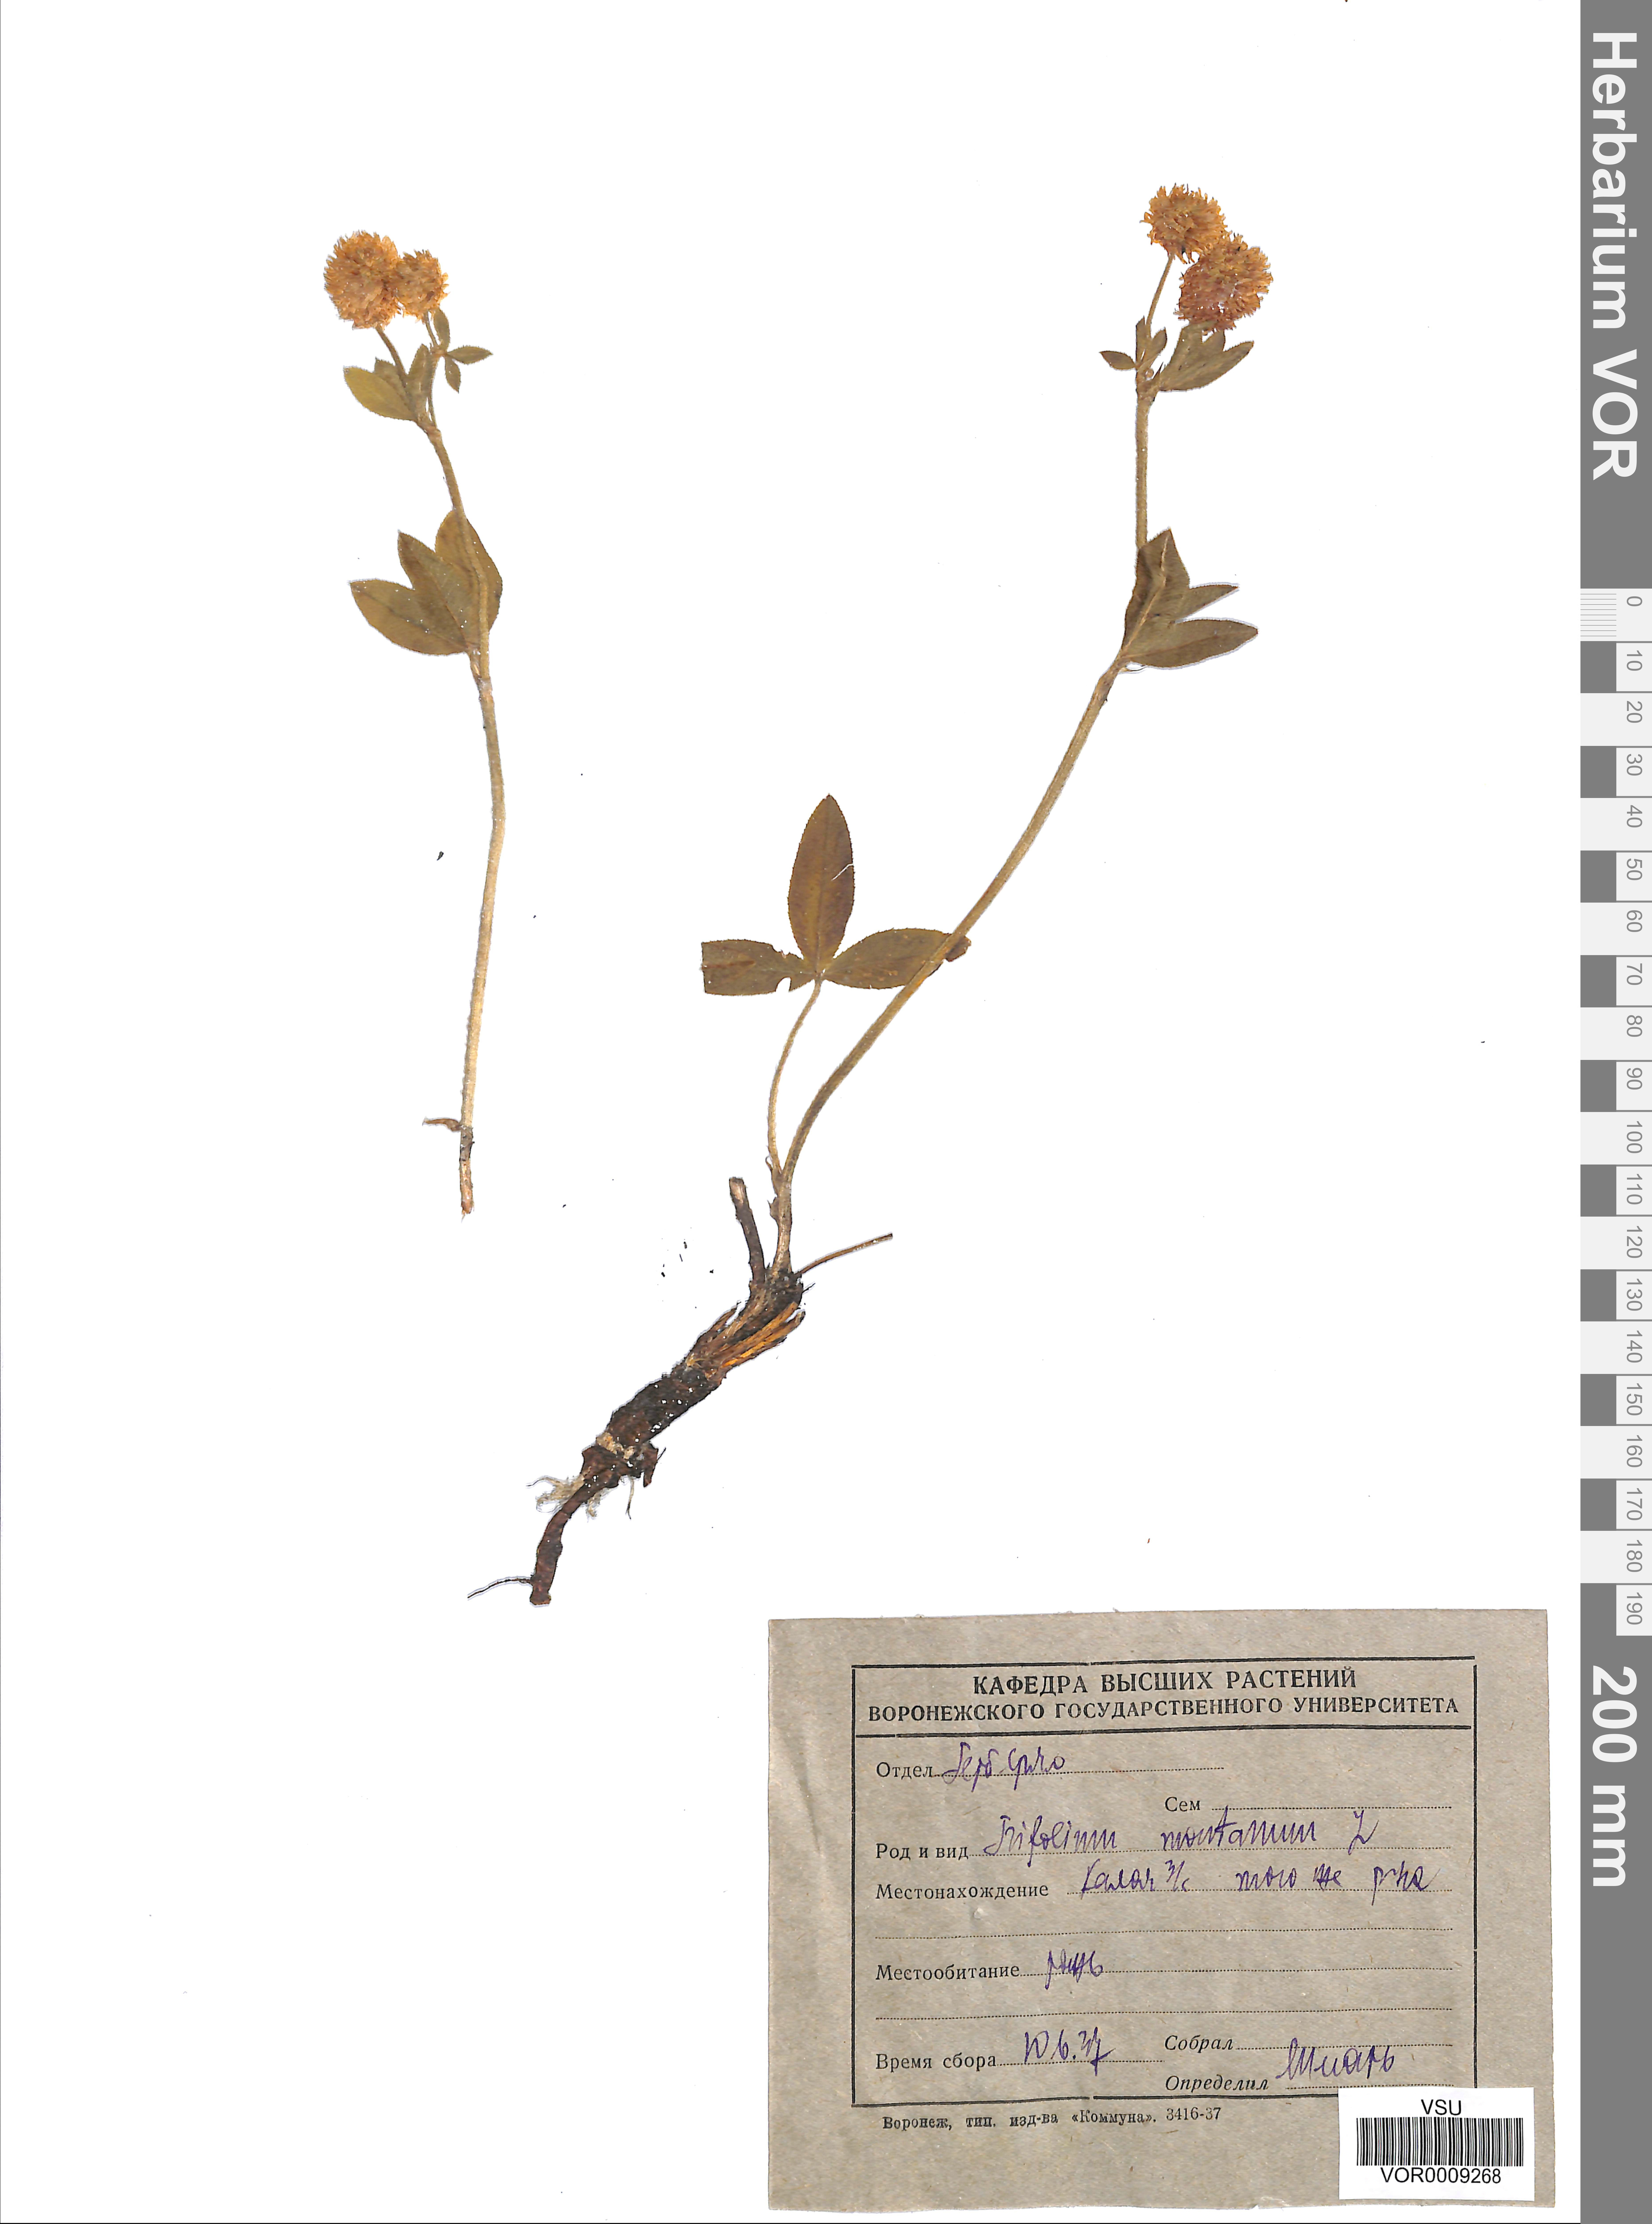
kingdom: Plantae
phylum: Tracheophyta
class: Magnoliopsida
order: Fabales
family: Fabaceae
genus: Trifolium
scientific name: Trifolium montanum
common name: Mountain clover
